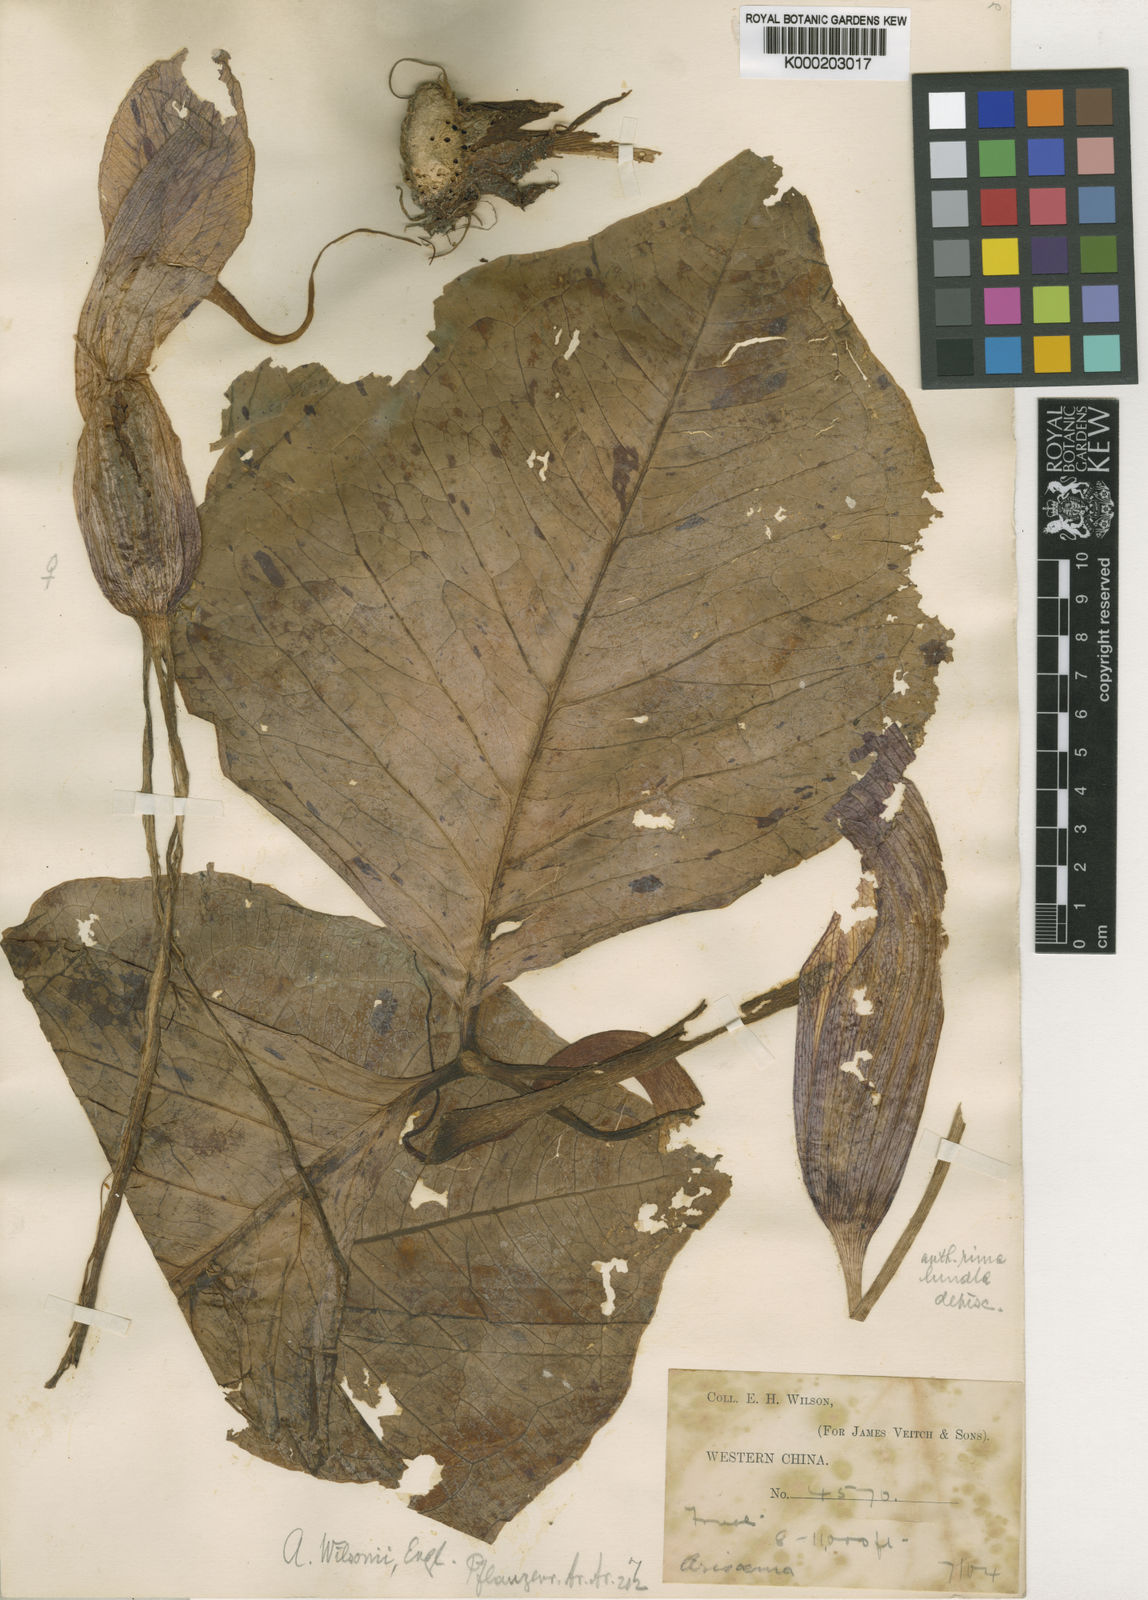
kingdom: Plantae
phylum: Tracheophyta
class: Liliopsida
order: Alismatales
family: Araceae
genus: Arisaema
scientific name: Arisaema wilsonii
